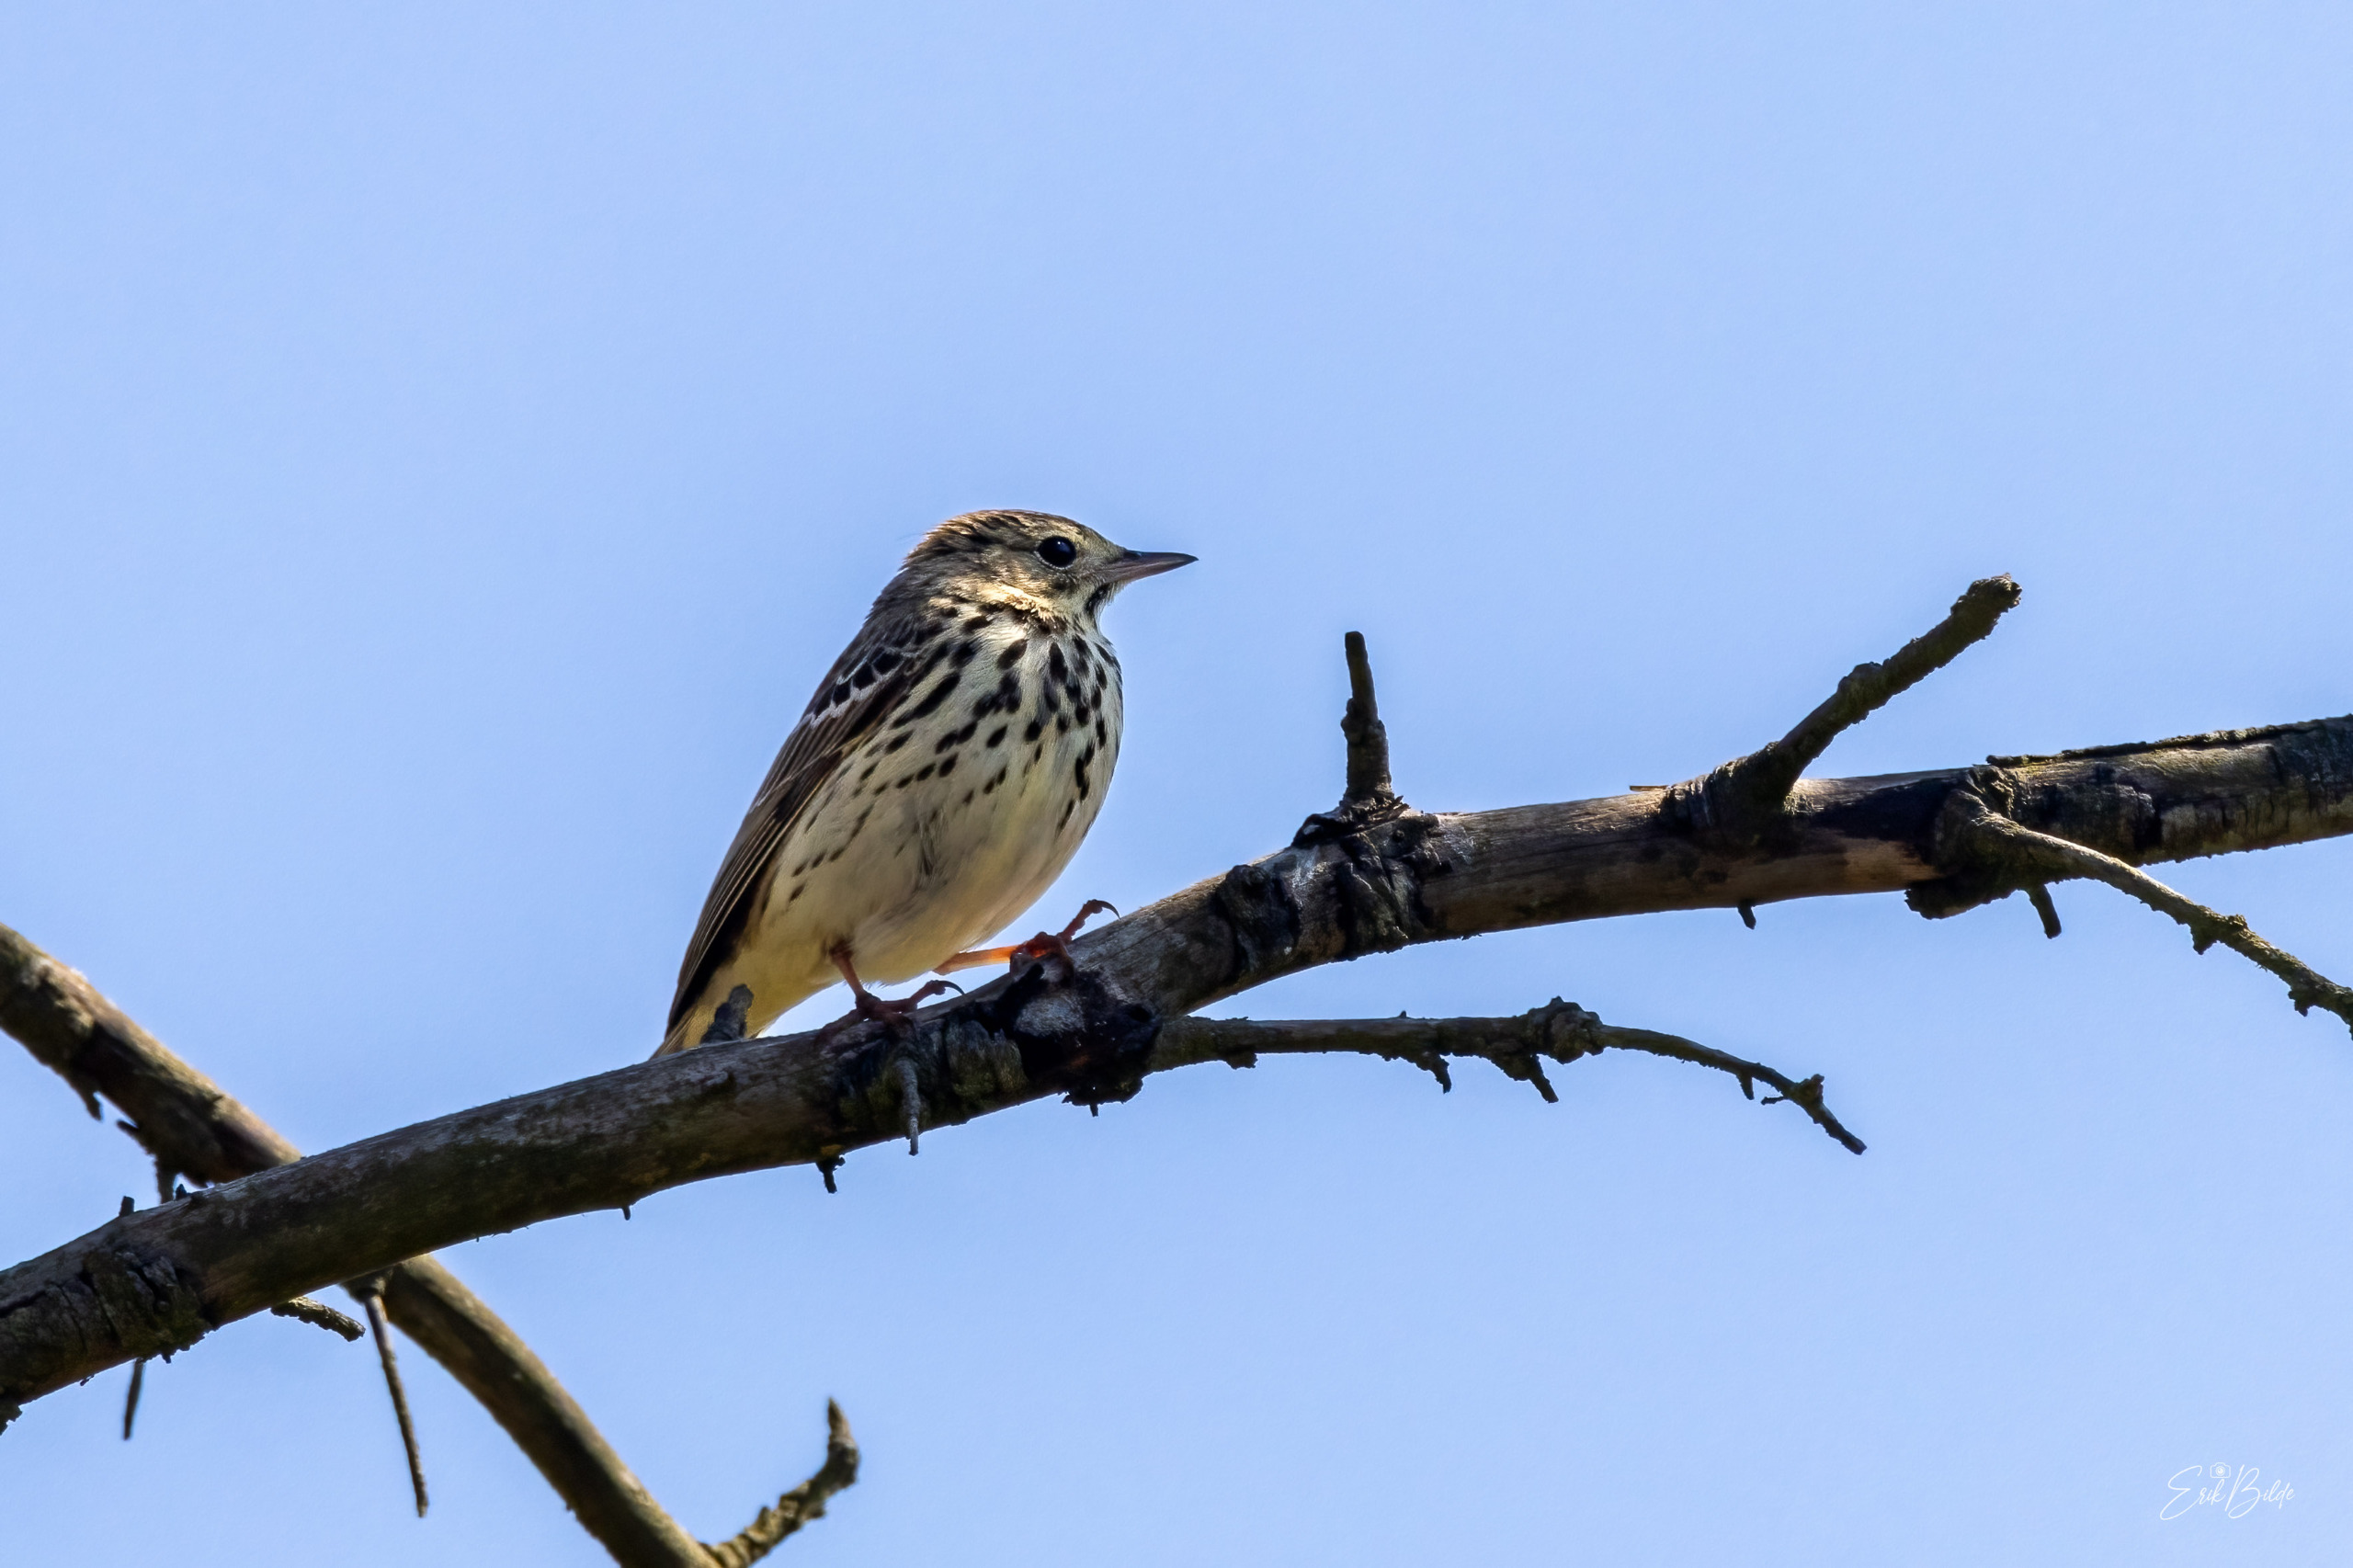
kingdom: Animalia
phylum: Chordata
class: Aves
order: Passeriformes
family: Motacillidae
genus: Anthus
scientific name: Anthus trivialis
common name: Skovpiber
